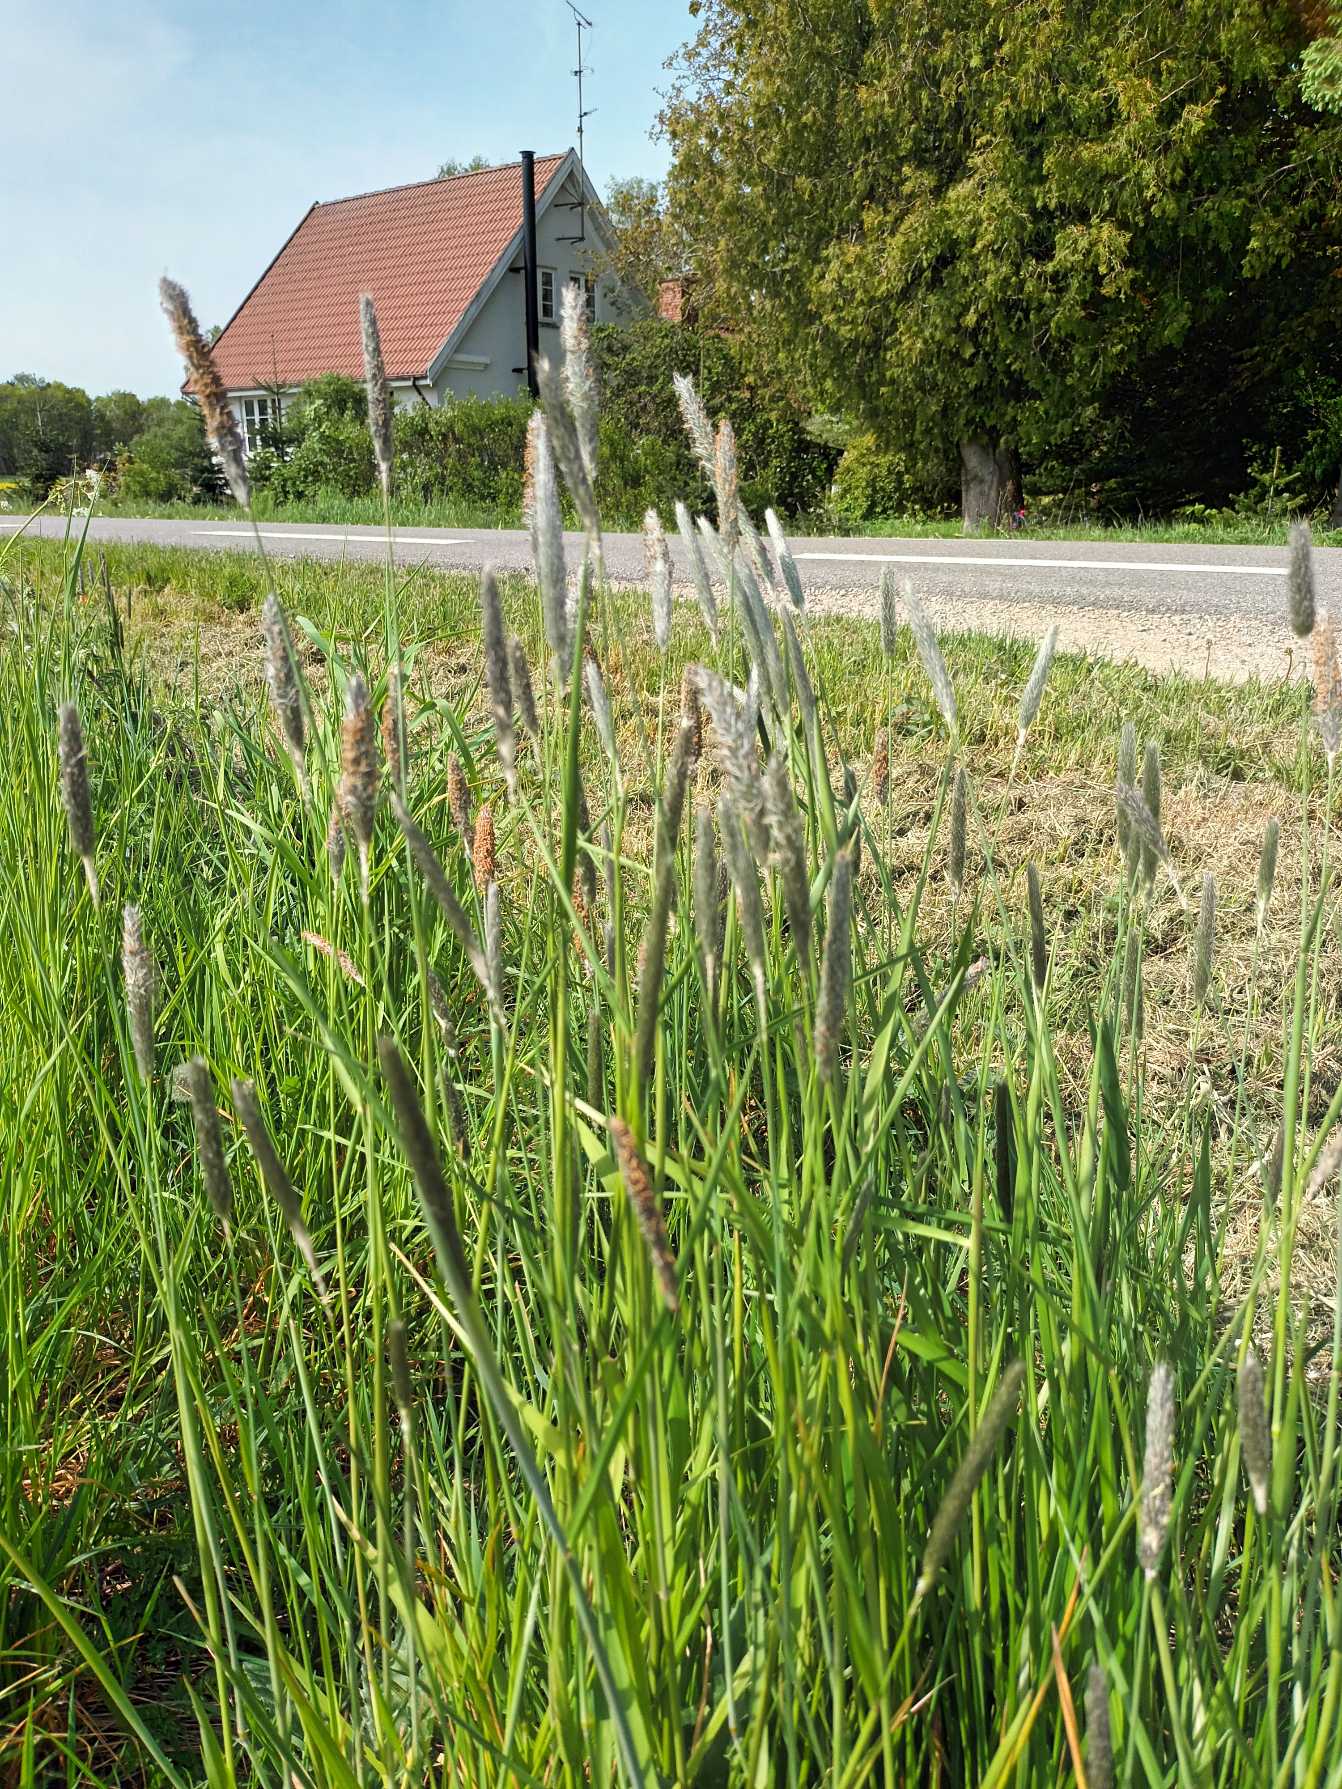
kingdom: Plantae
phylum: Tracheophyta
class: Liliopsida
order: Poales
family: Poaceae
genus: Alopecurus
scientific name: Alopecurus pratensis
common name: Eng-rævehale
